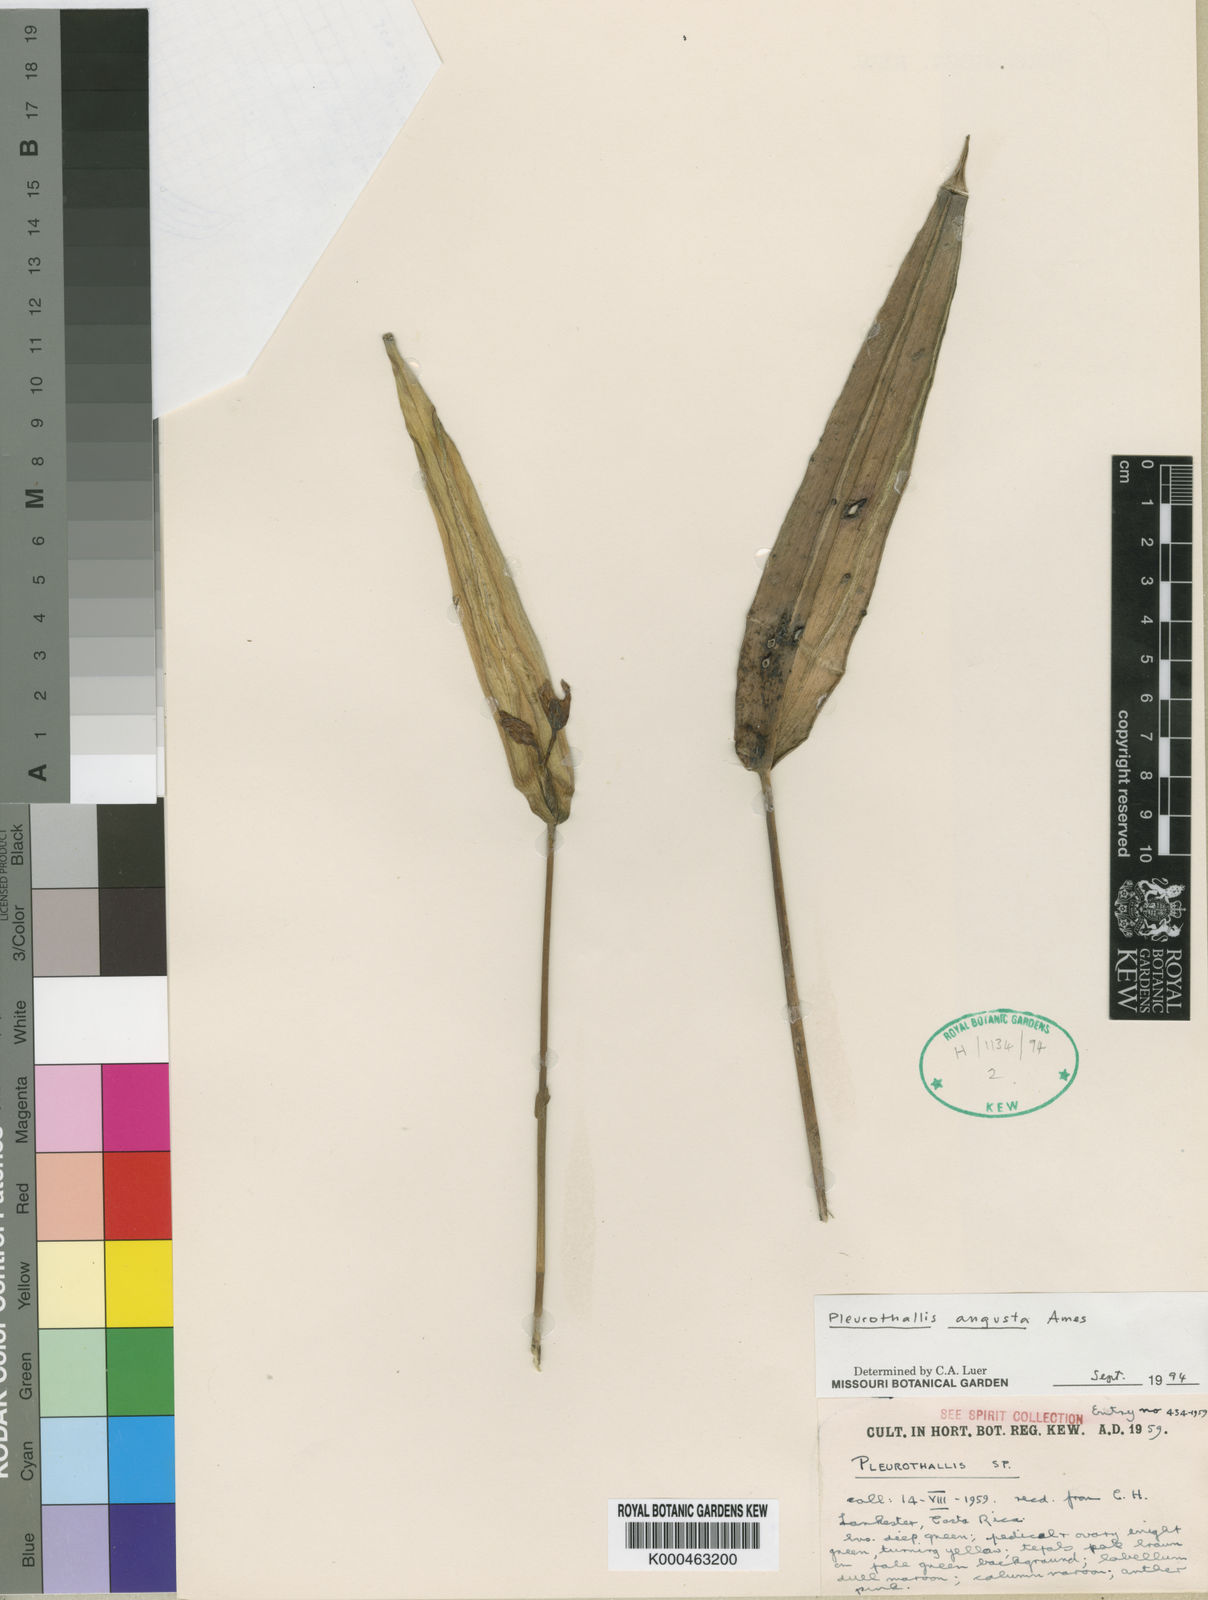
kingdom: Plantae
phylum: Tracheophyta
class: Liliopsida
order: Asparagales
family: Orchidaceae
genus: Pleurothallis
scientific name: Pleurothallis bivalvis
